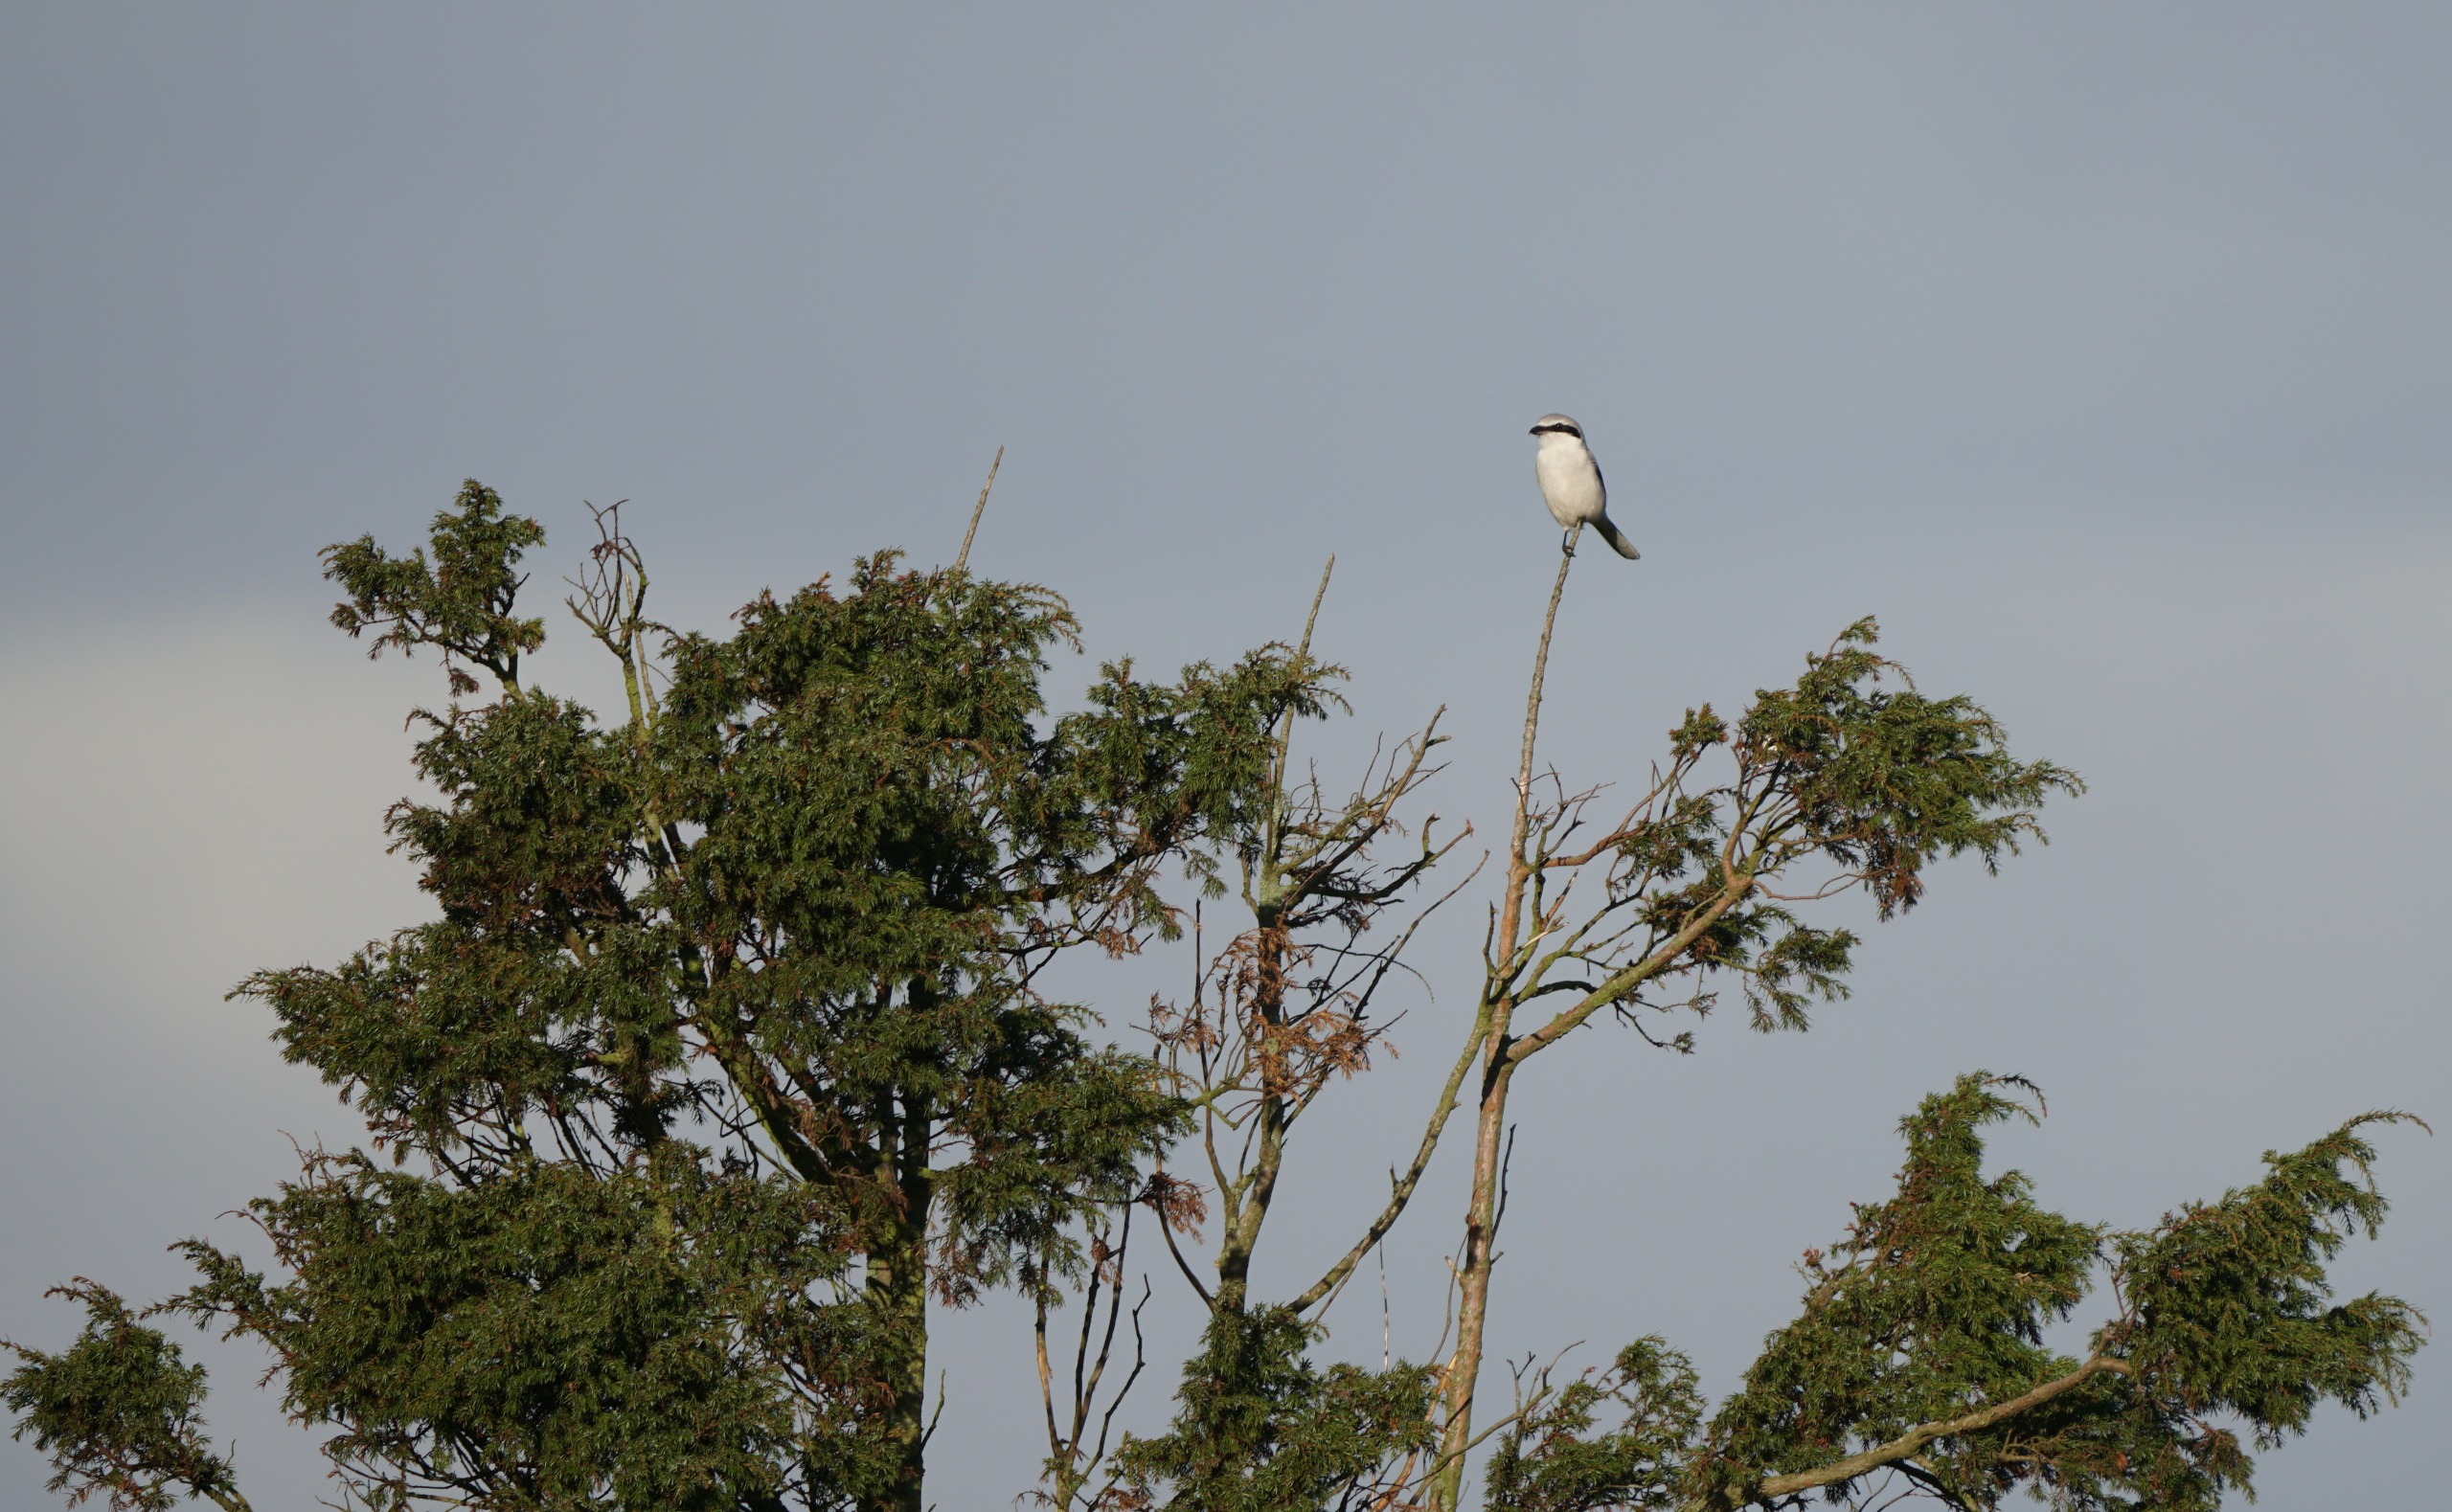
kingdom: Animalia
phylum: Chordata
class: Aves
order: Passeriformes
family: Laniidae
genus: Lanius
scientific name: Lanius excubitor
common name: Stor tornskade
